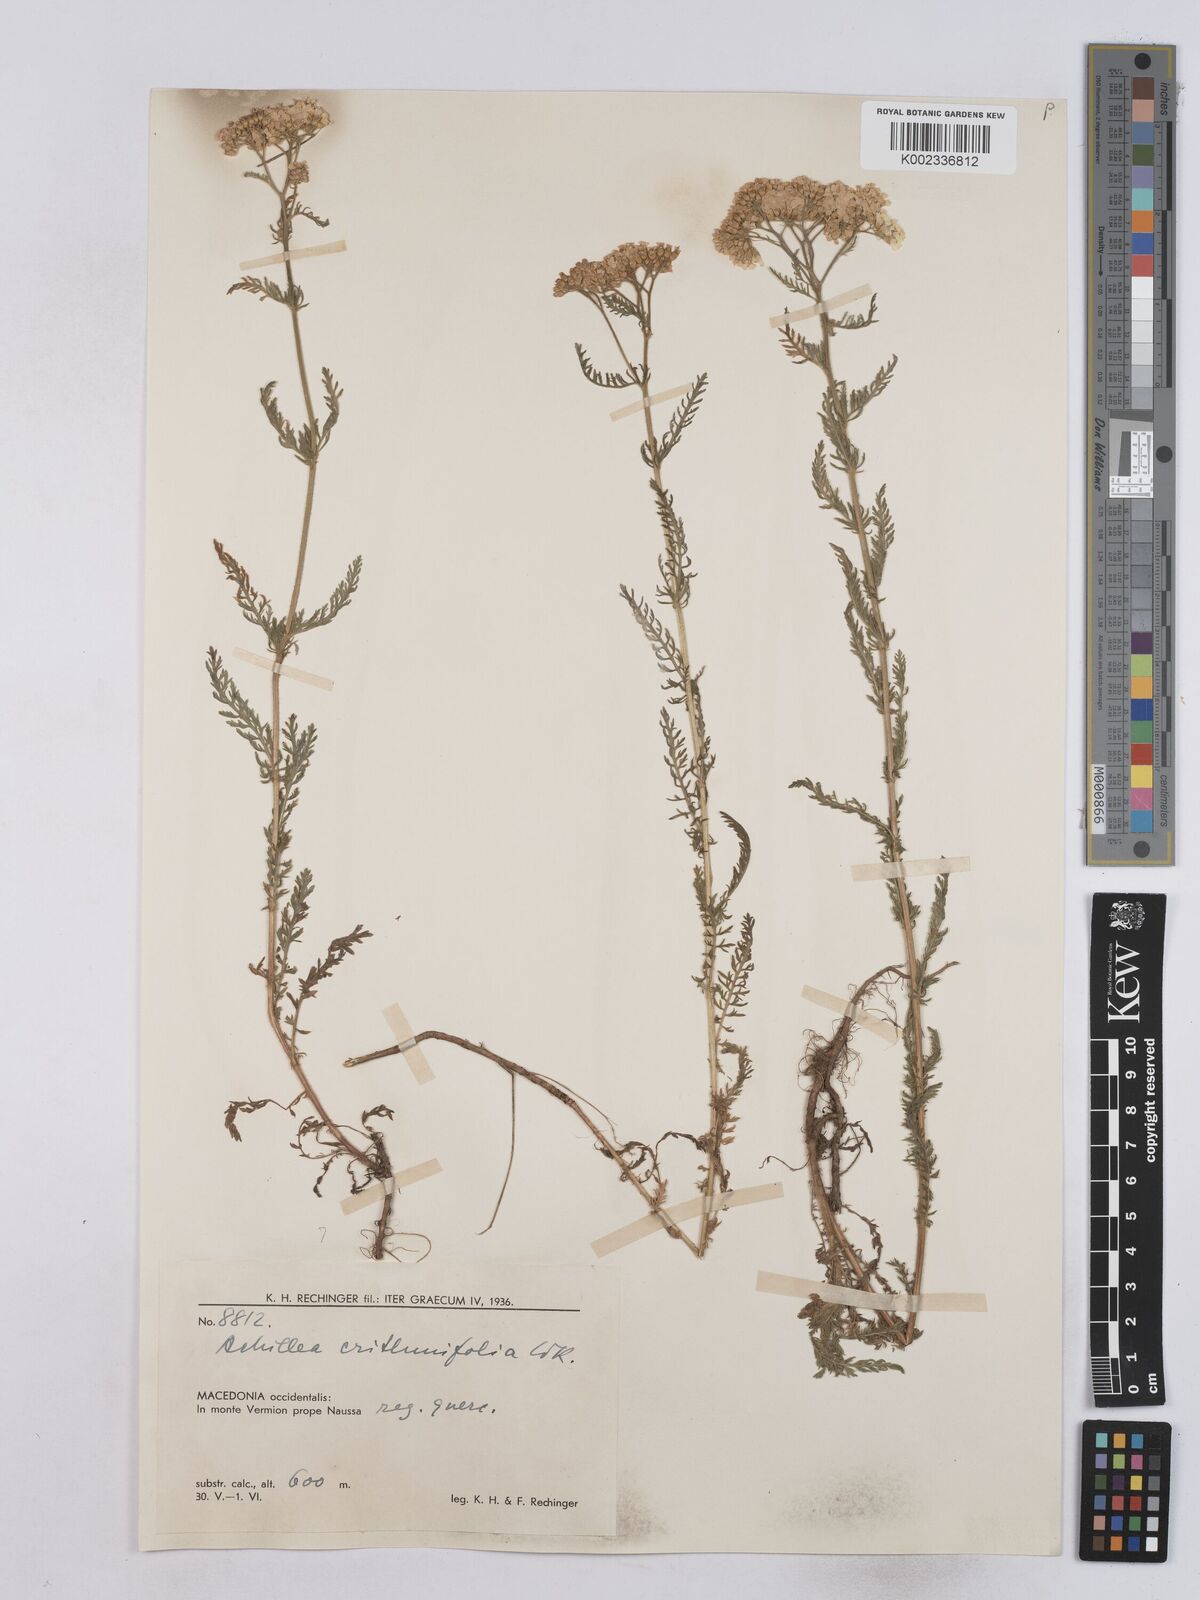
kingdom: Plantae
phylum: Tracheophyta
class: Magnoliopsida
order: Asterales
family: Asteraceae
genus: Achillea
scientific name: Achillea crithmifolia
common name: Yarrow
